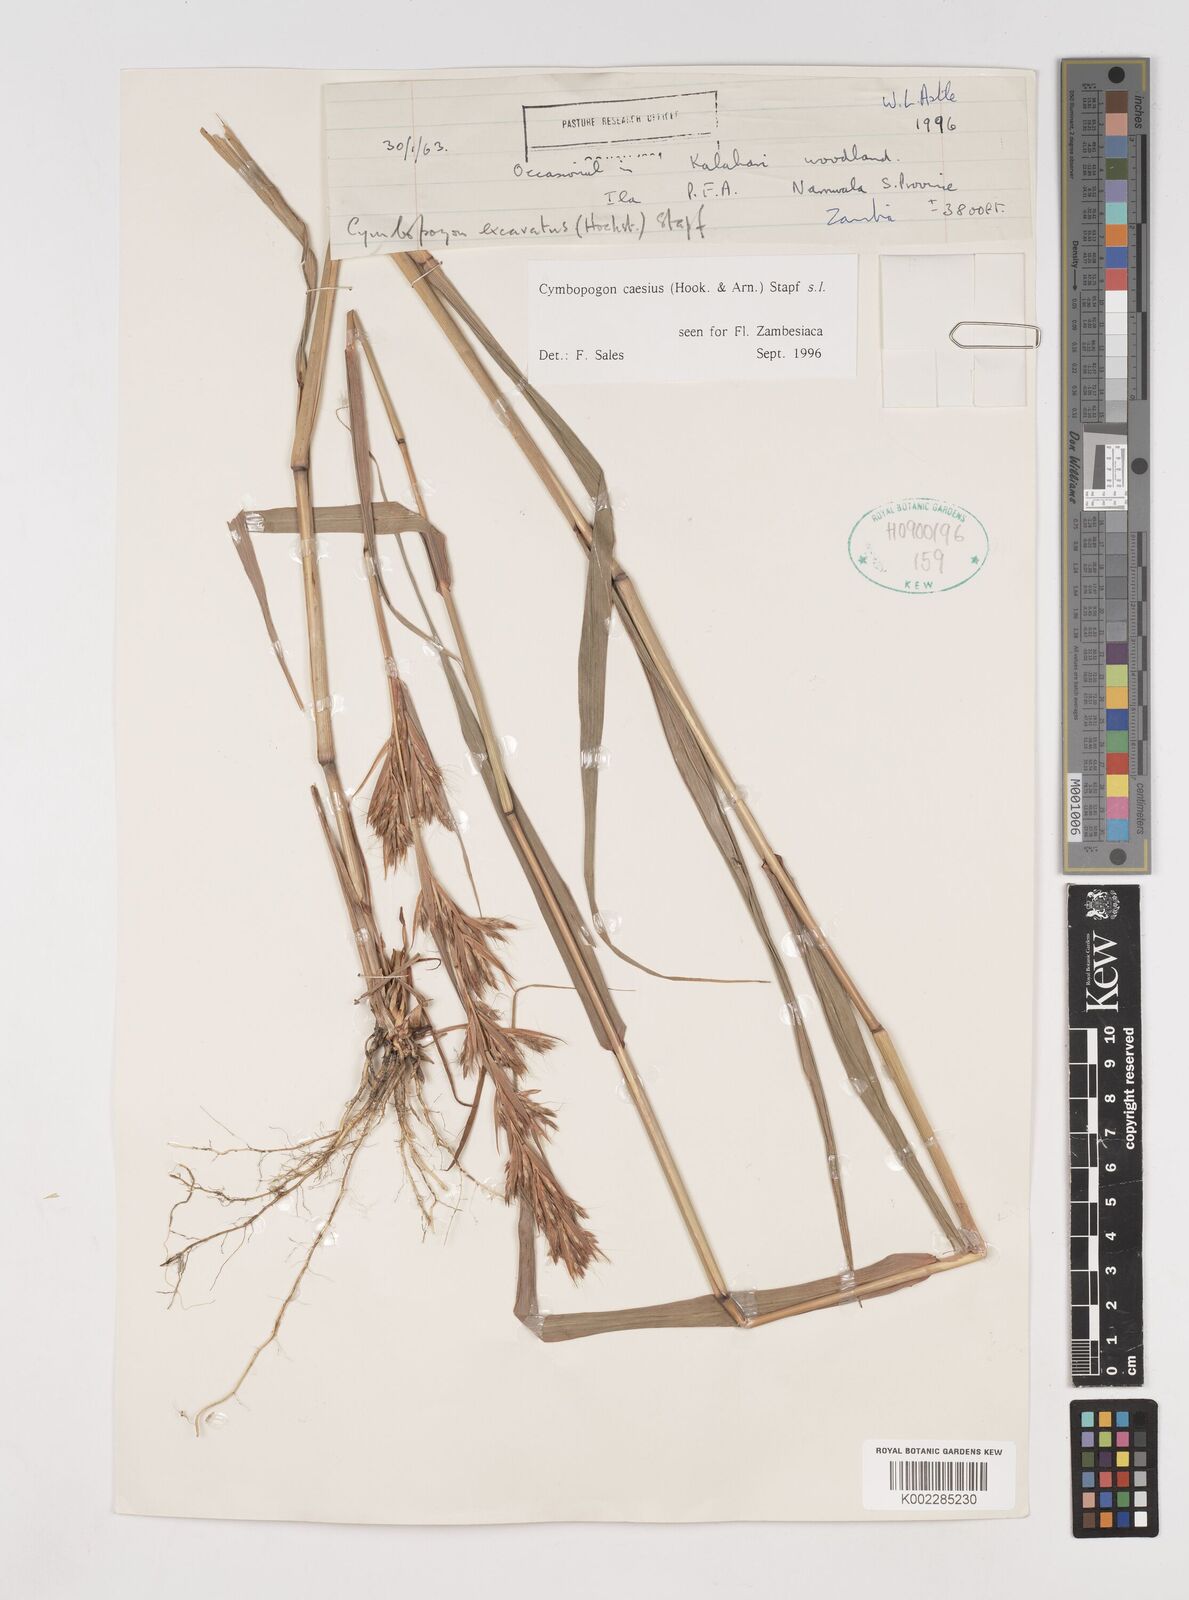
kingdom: Plantae
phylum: Tracheophyta
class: Liliopsida
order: Poales
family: Poaceae
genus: Cymbopogon
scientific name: Cymbopogon caesius
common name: Kachi grass
